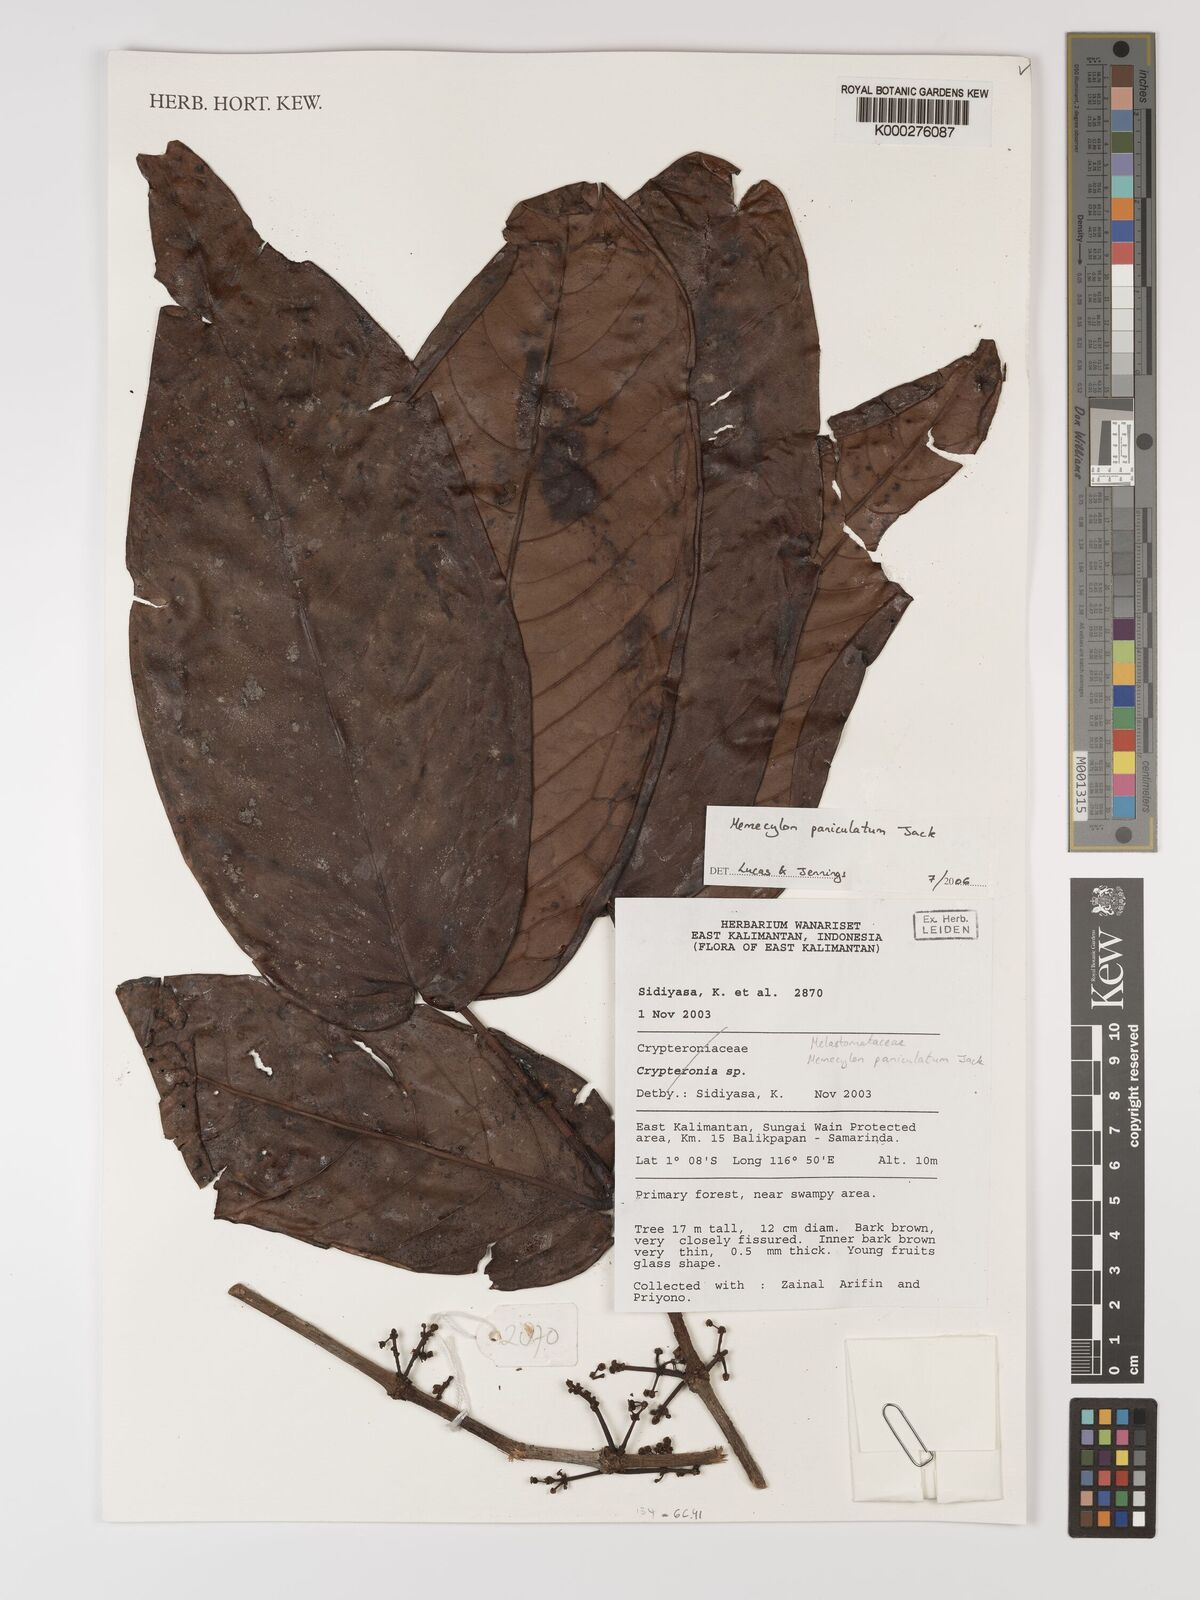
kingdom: Plantae
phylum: Tracheophyta
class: Magnoliopsida
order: Myrtales
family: Melastomataceae
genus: Memecylon
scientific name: Memecylon paniculatum
